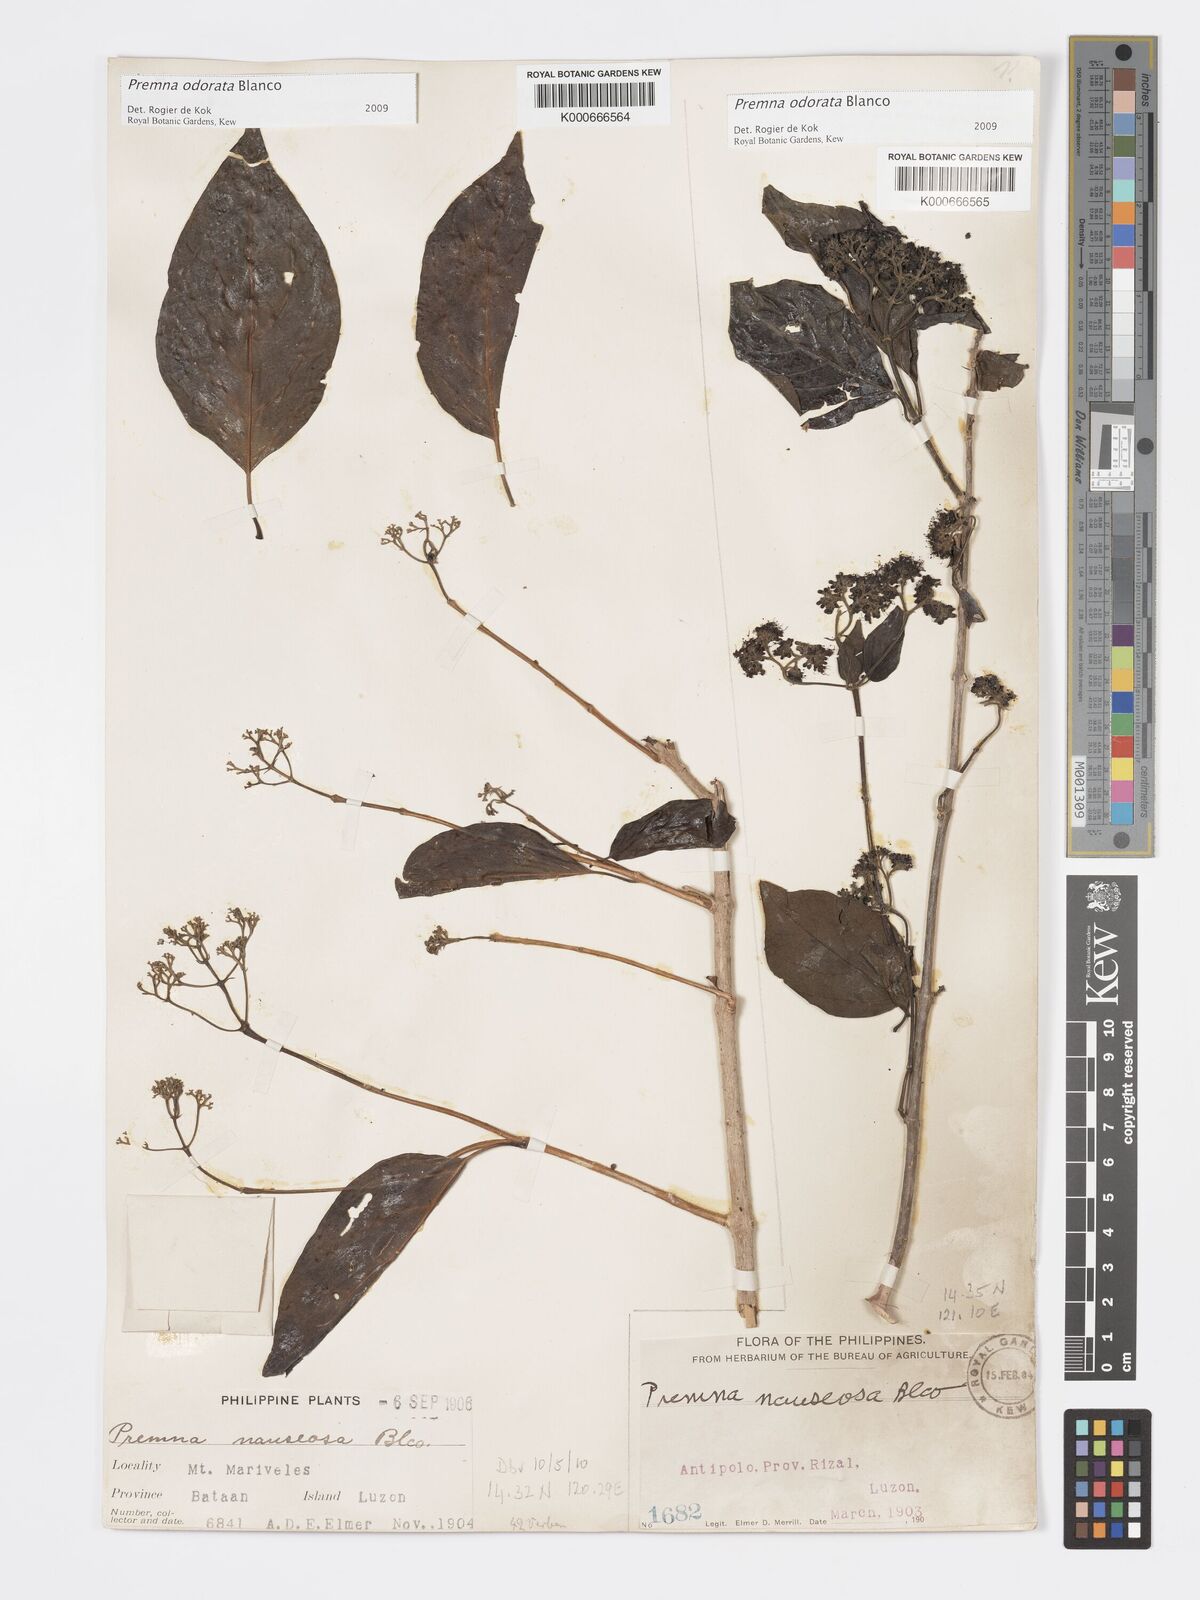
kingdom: Plantae
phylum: Tracheophyta
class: Magnoliopsida
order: Lamiales
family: Lamiaceae
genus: Premna
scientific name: Premna odorata
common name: Fragrant premna
